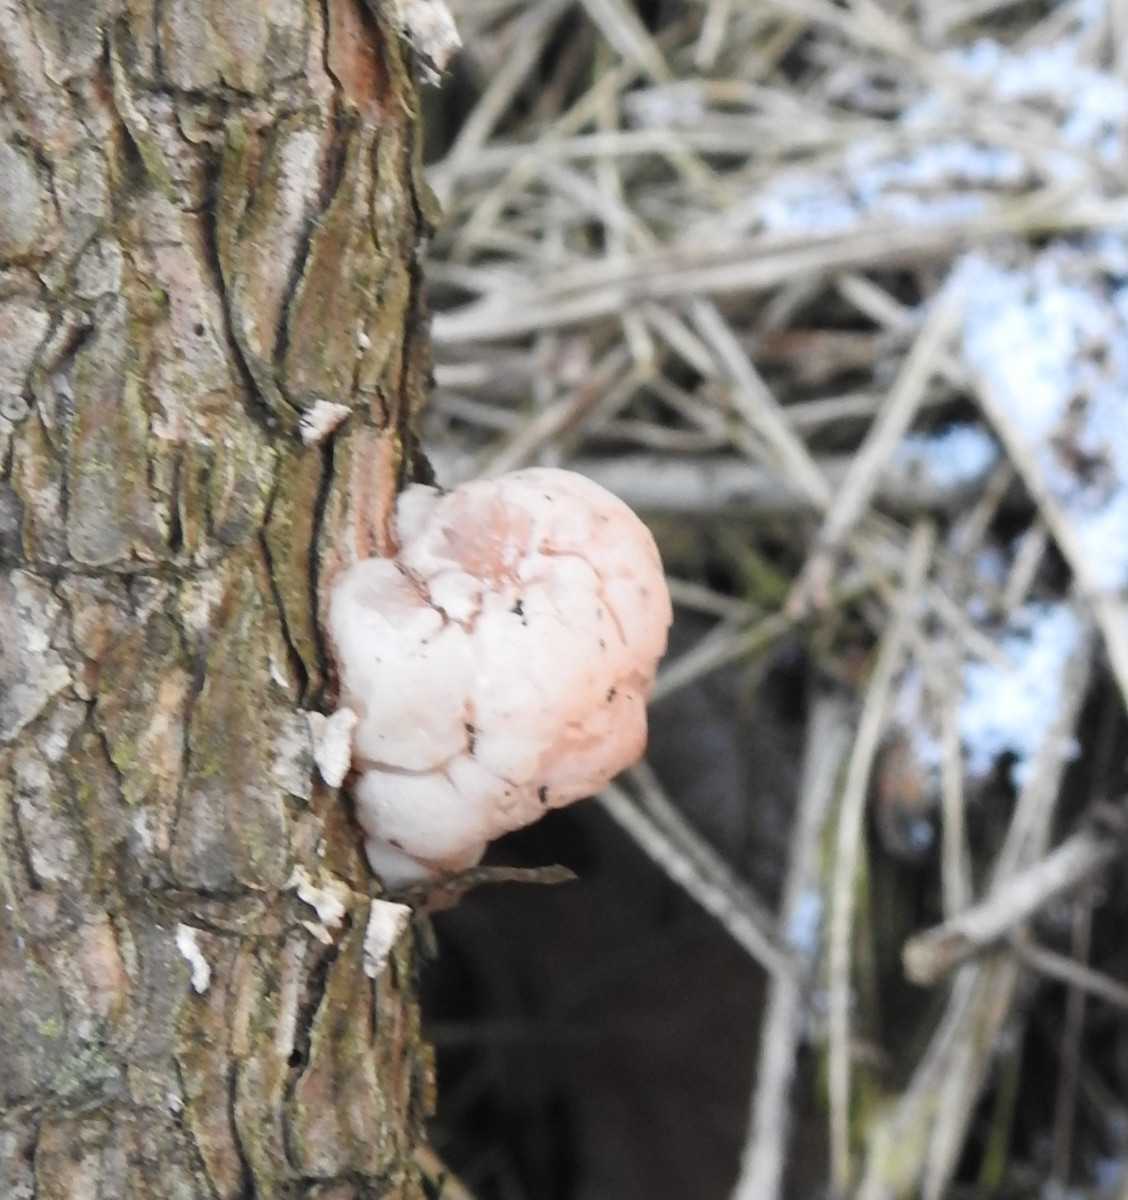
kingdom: Fungi
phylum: Basidiomycota
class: Tremellomycetes
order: Tremellales
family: Naemateliaceae
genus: Naematelia
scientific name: Naematelia encephala
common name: fyrre-bævresvamp
